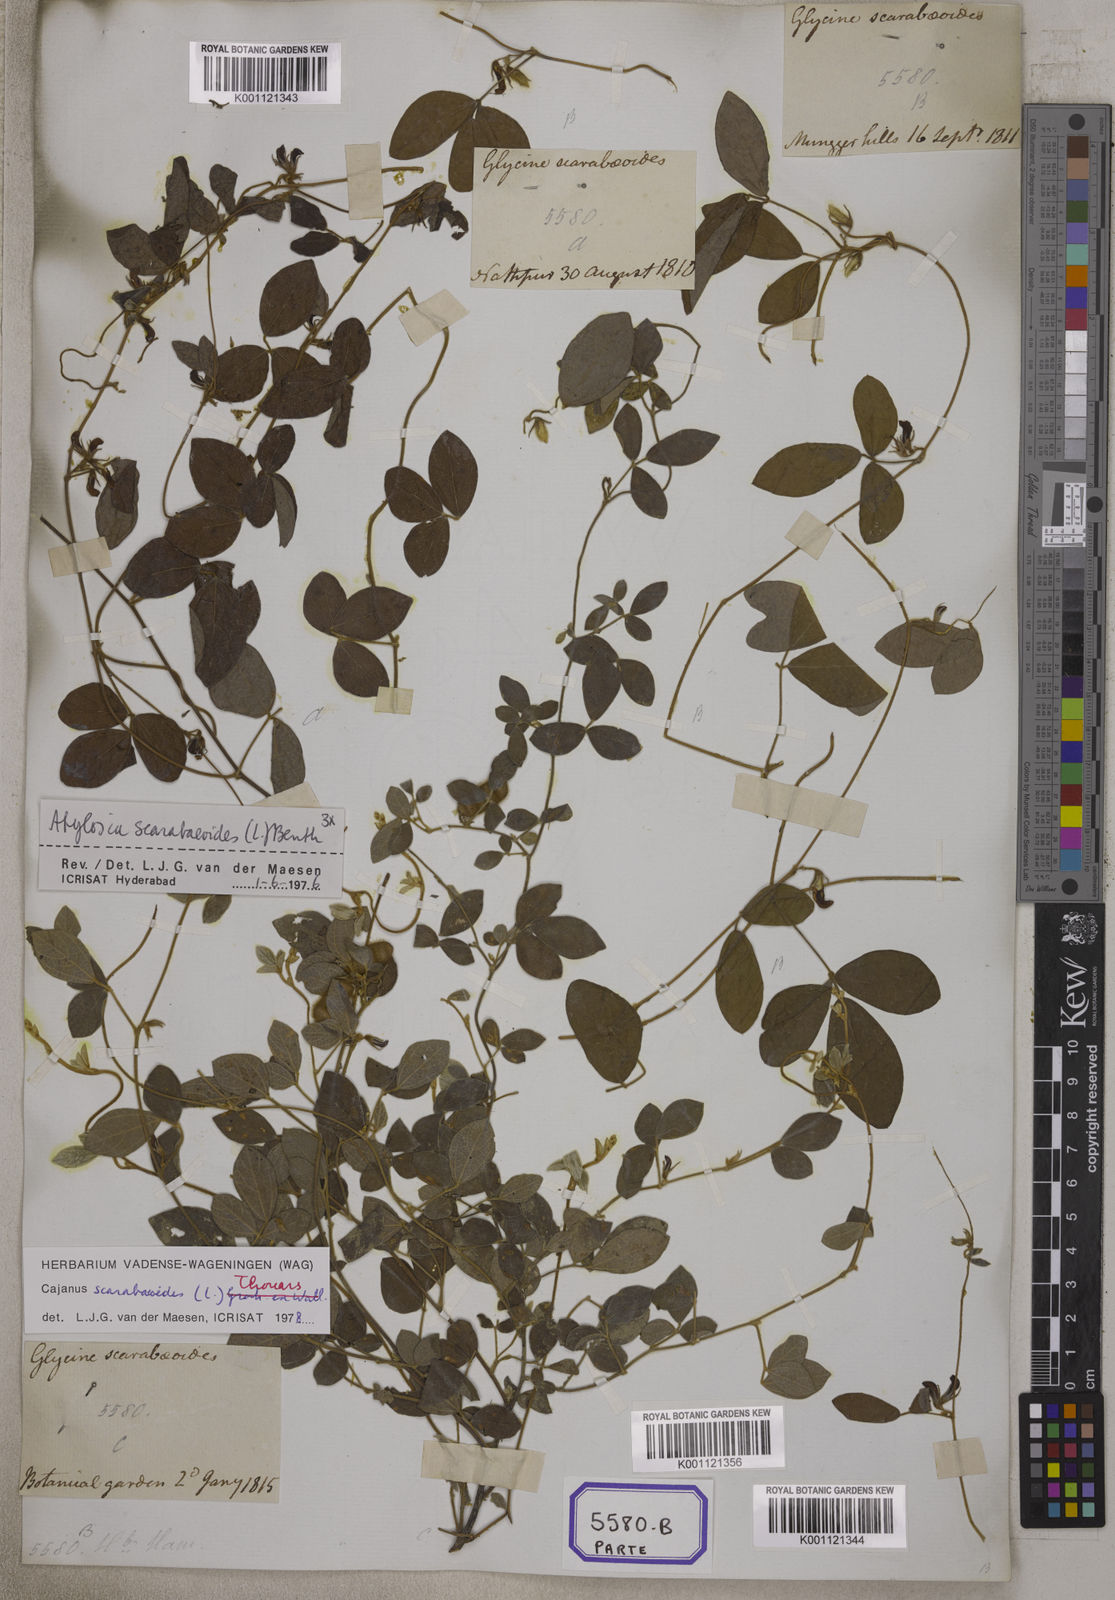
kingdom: Plantae
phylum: Tracheophyta
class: Magnoliopsida
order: Fabales
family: Fabaceae
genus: Cajanus
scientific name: Cajanus scarabaeoides
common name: Showy pigeonpea
